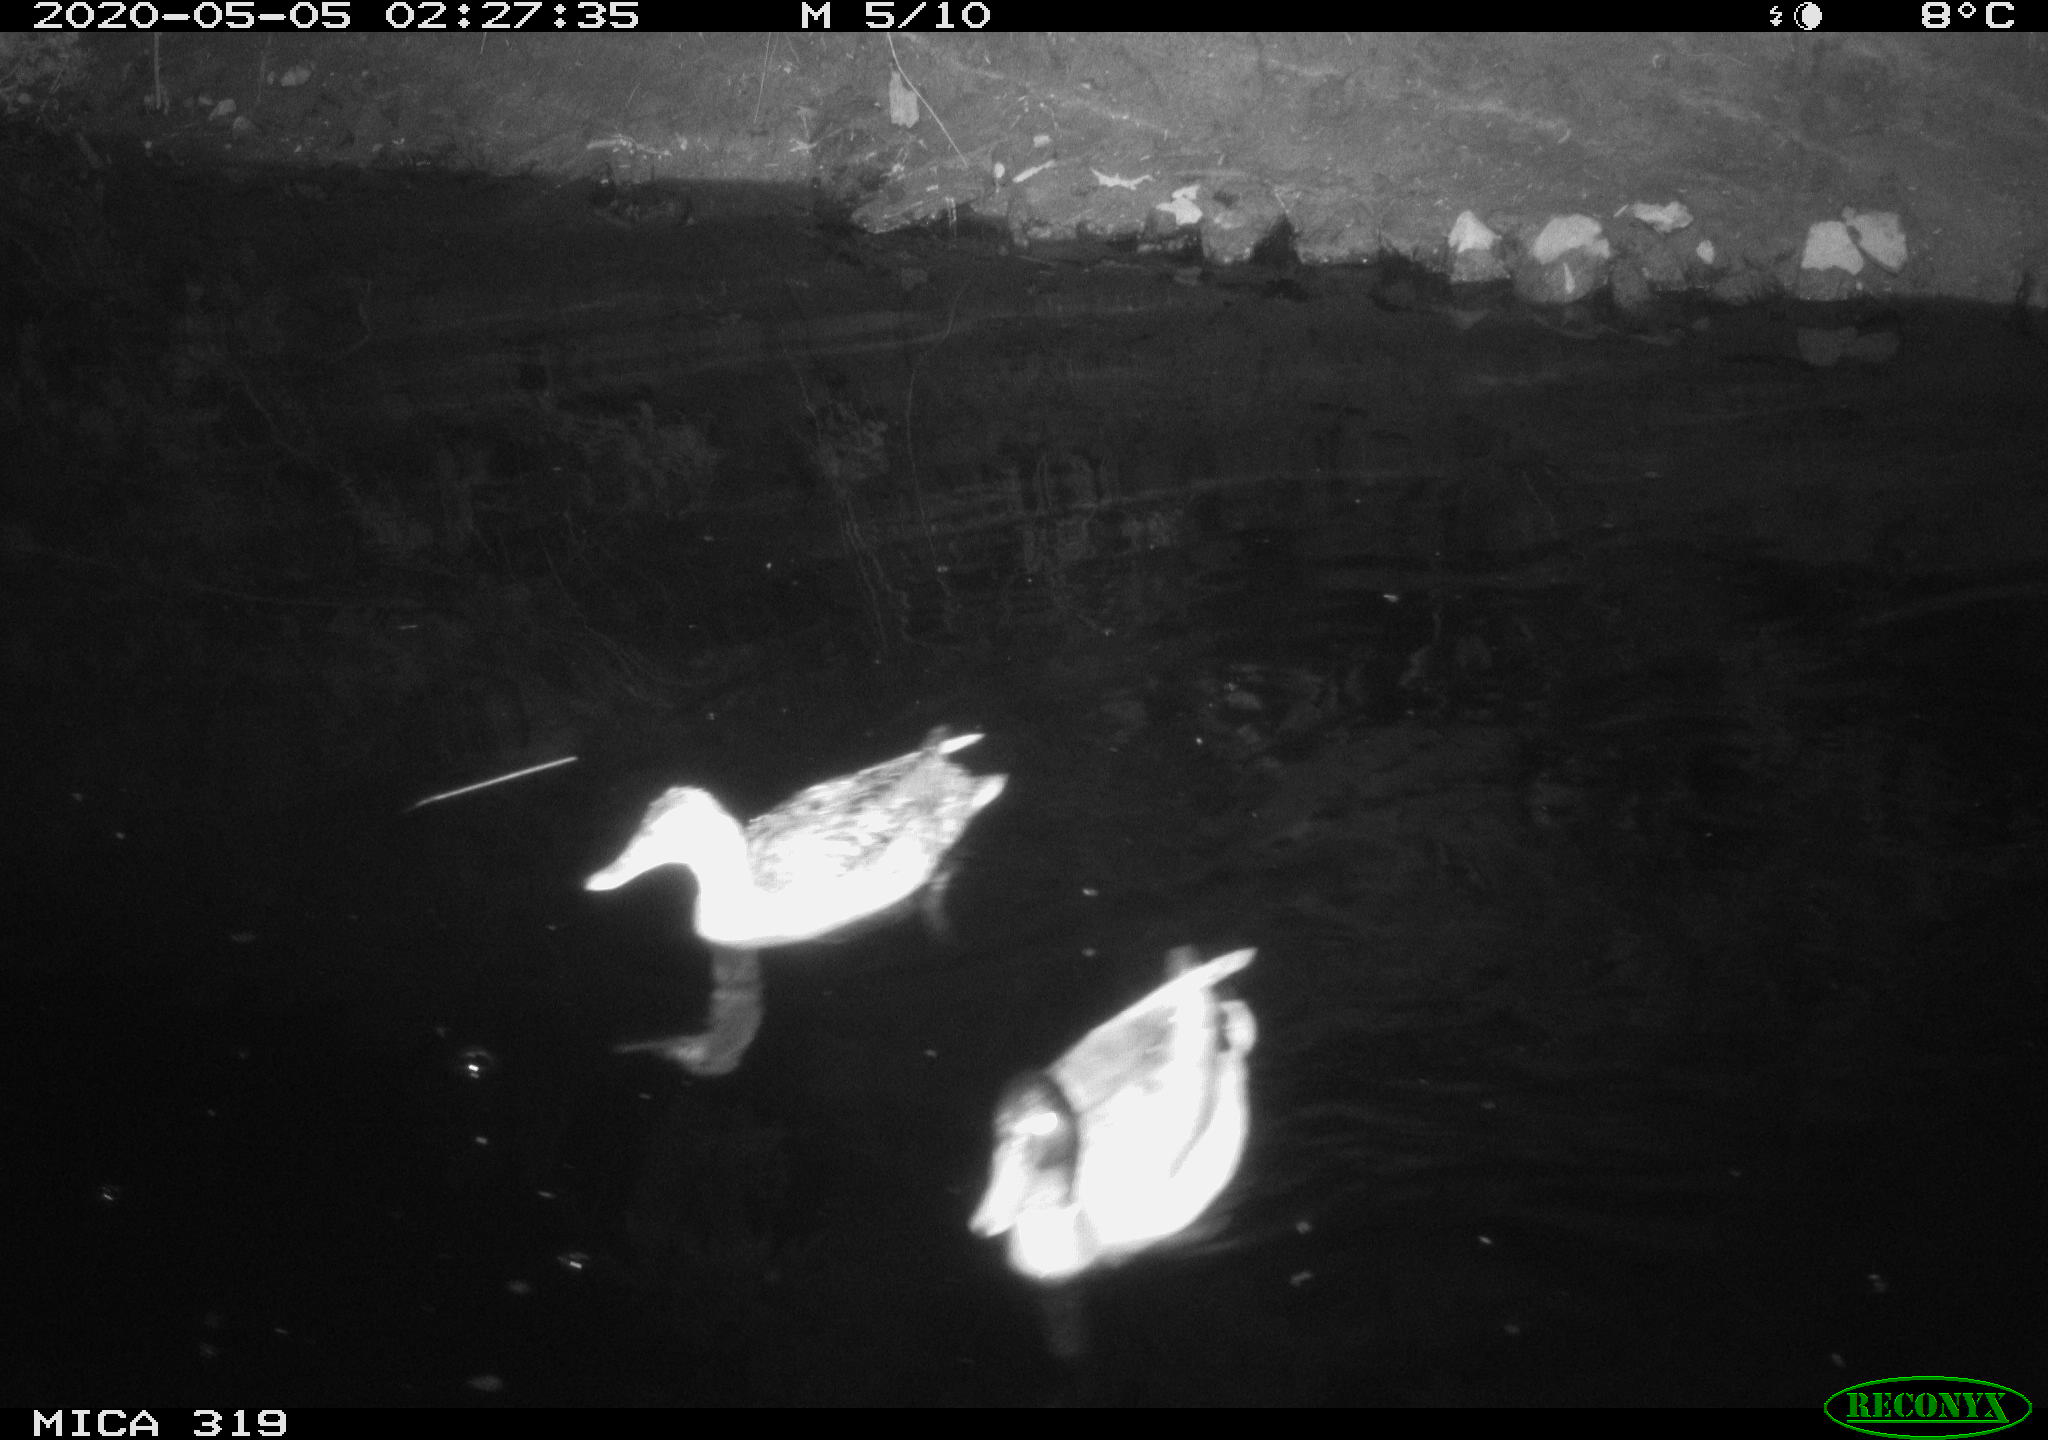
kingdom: Animalia
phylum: Chordata
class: Aves
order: Anseriformes
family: Anatidae
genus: Anas
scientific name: Anas platyrhynchos
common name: Mallard
